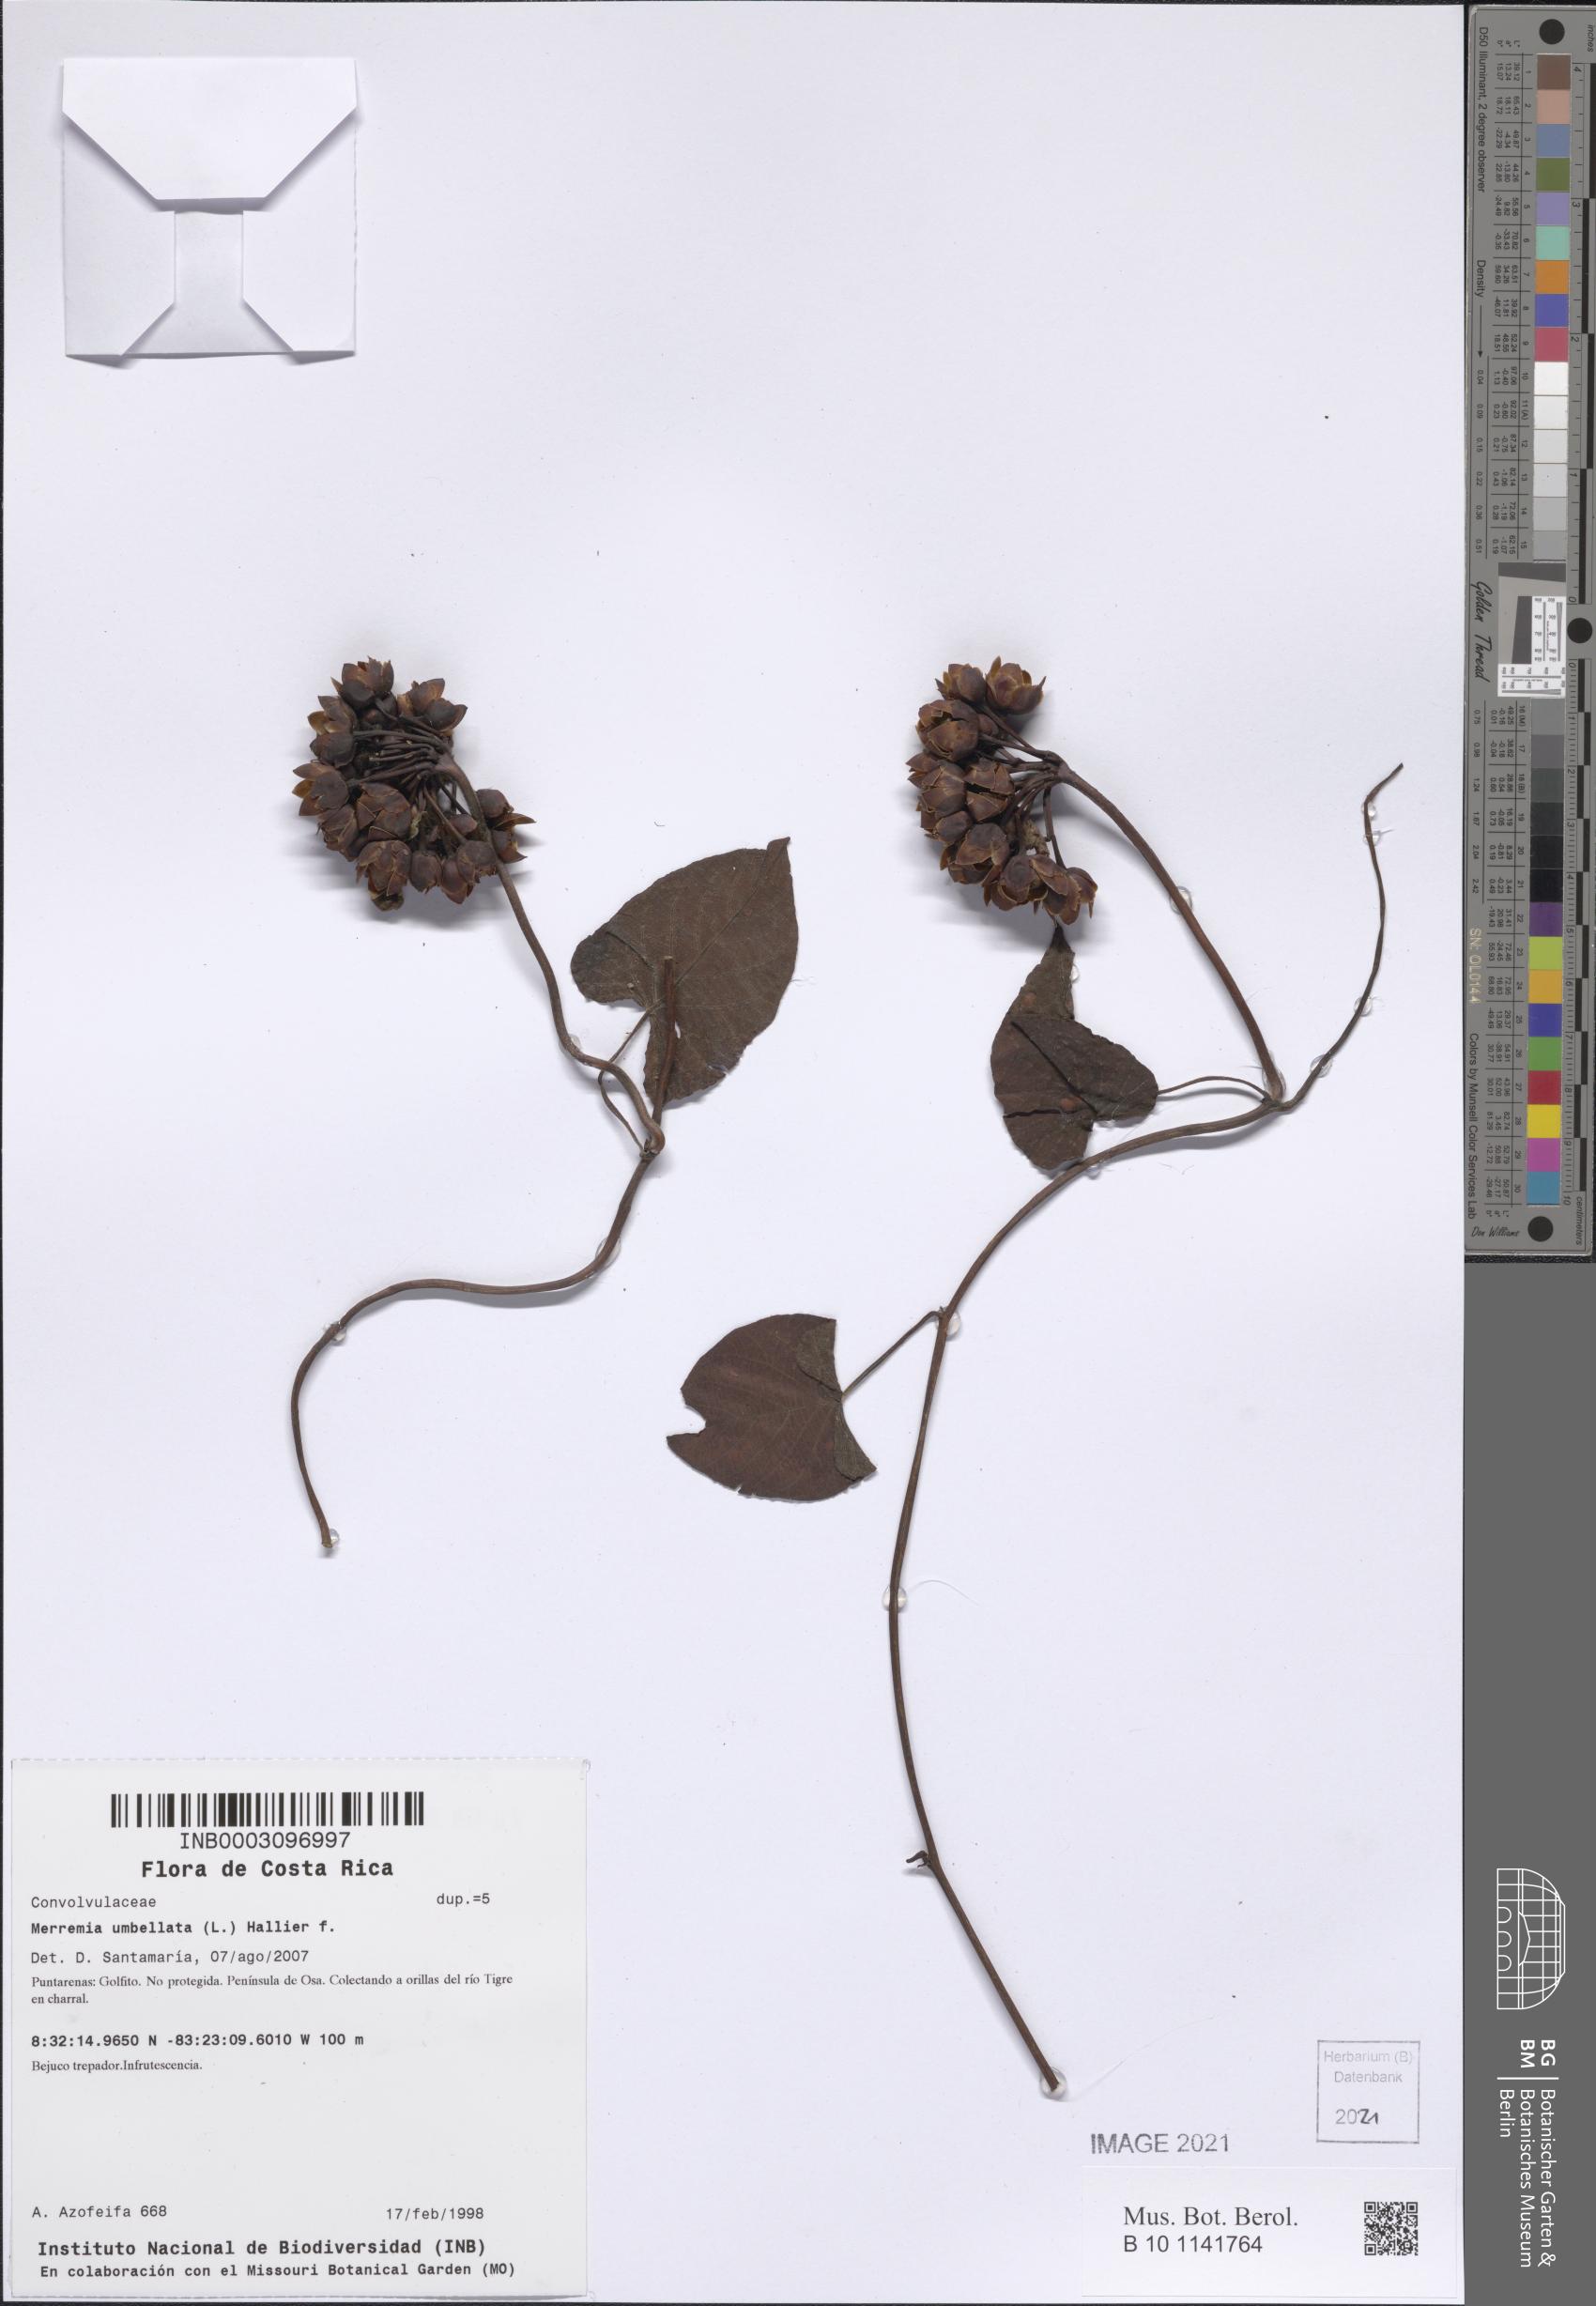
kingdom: Plantae
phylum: Tracheophyta
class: Magnoliopsida
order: Solanales
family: Convolvulaceae
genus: Camonea
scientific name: Camonea umbellata
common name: Hogvine
